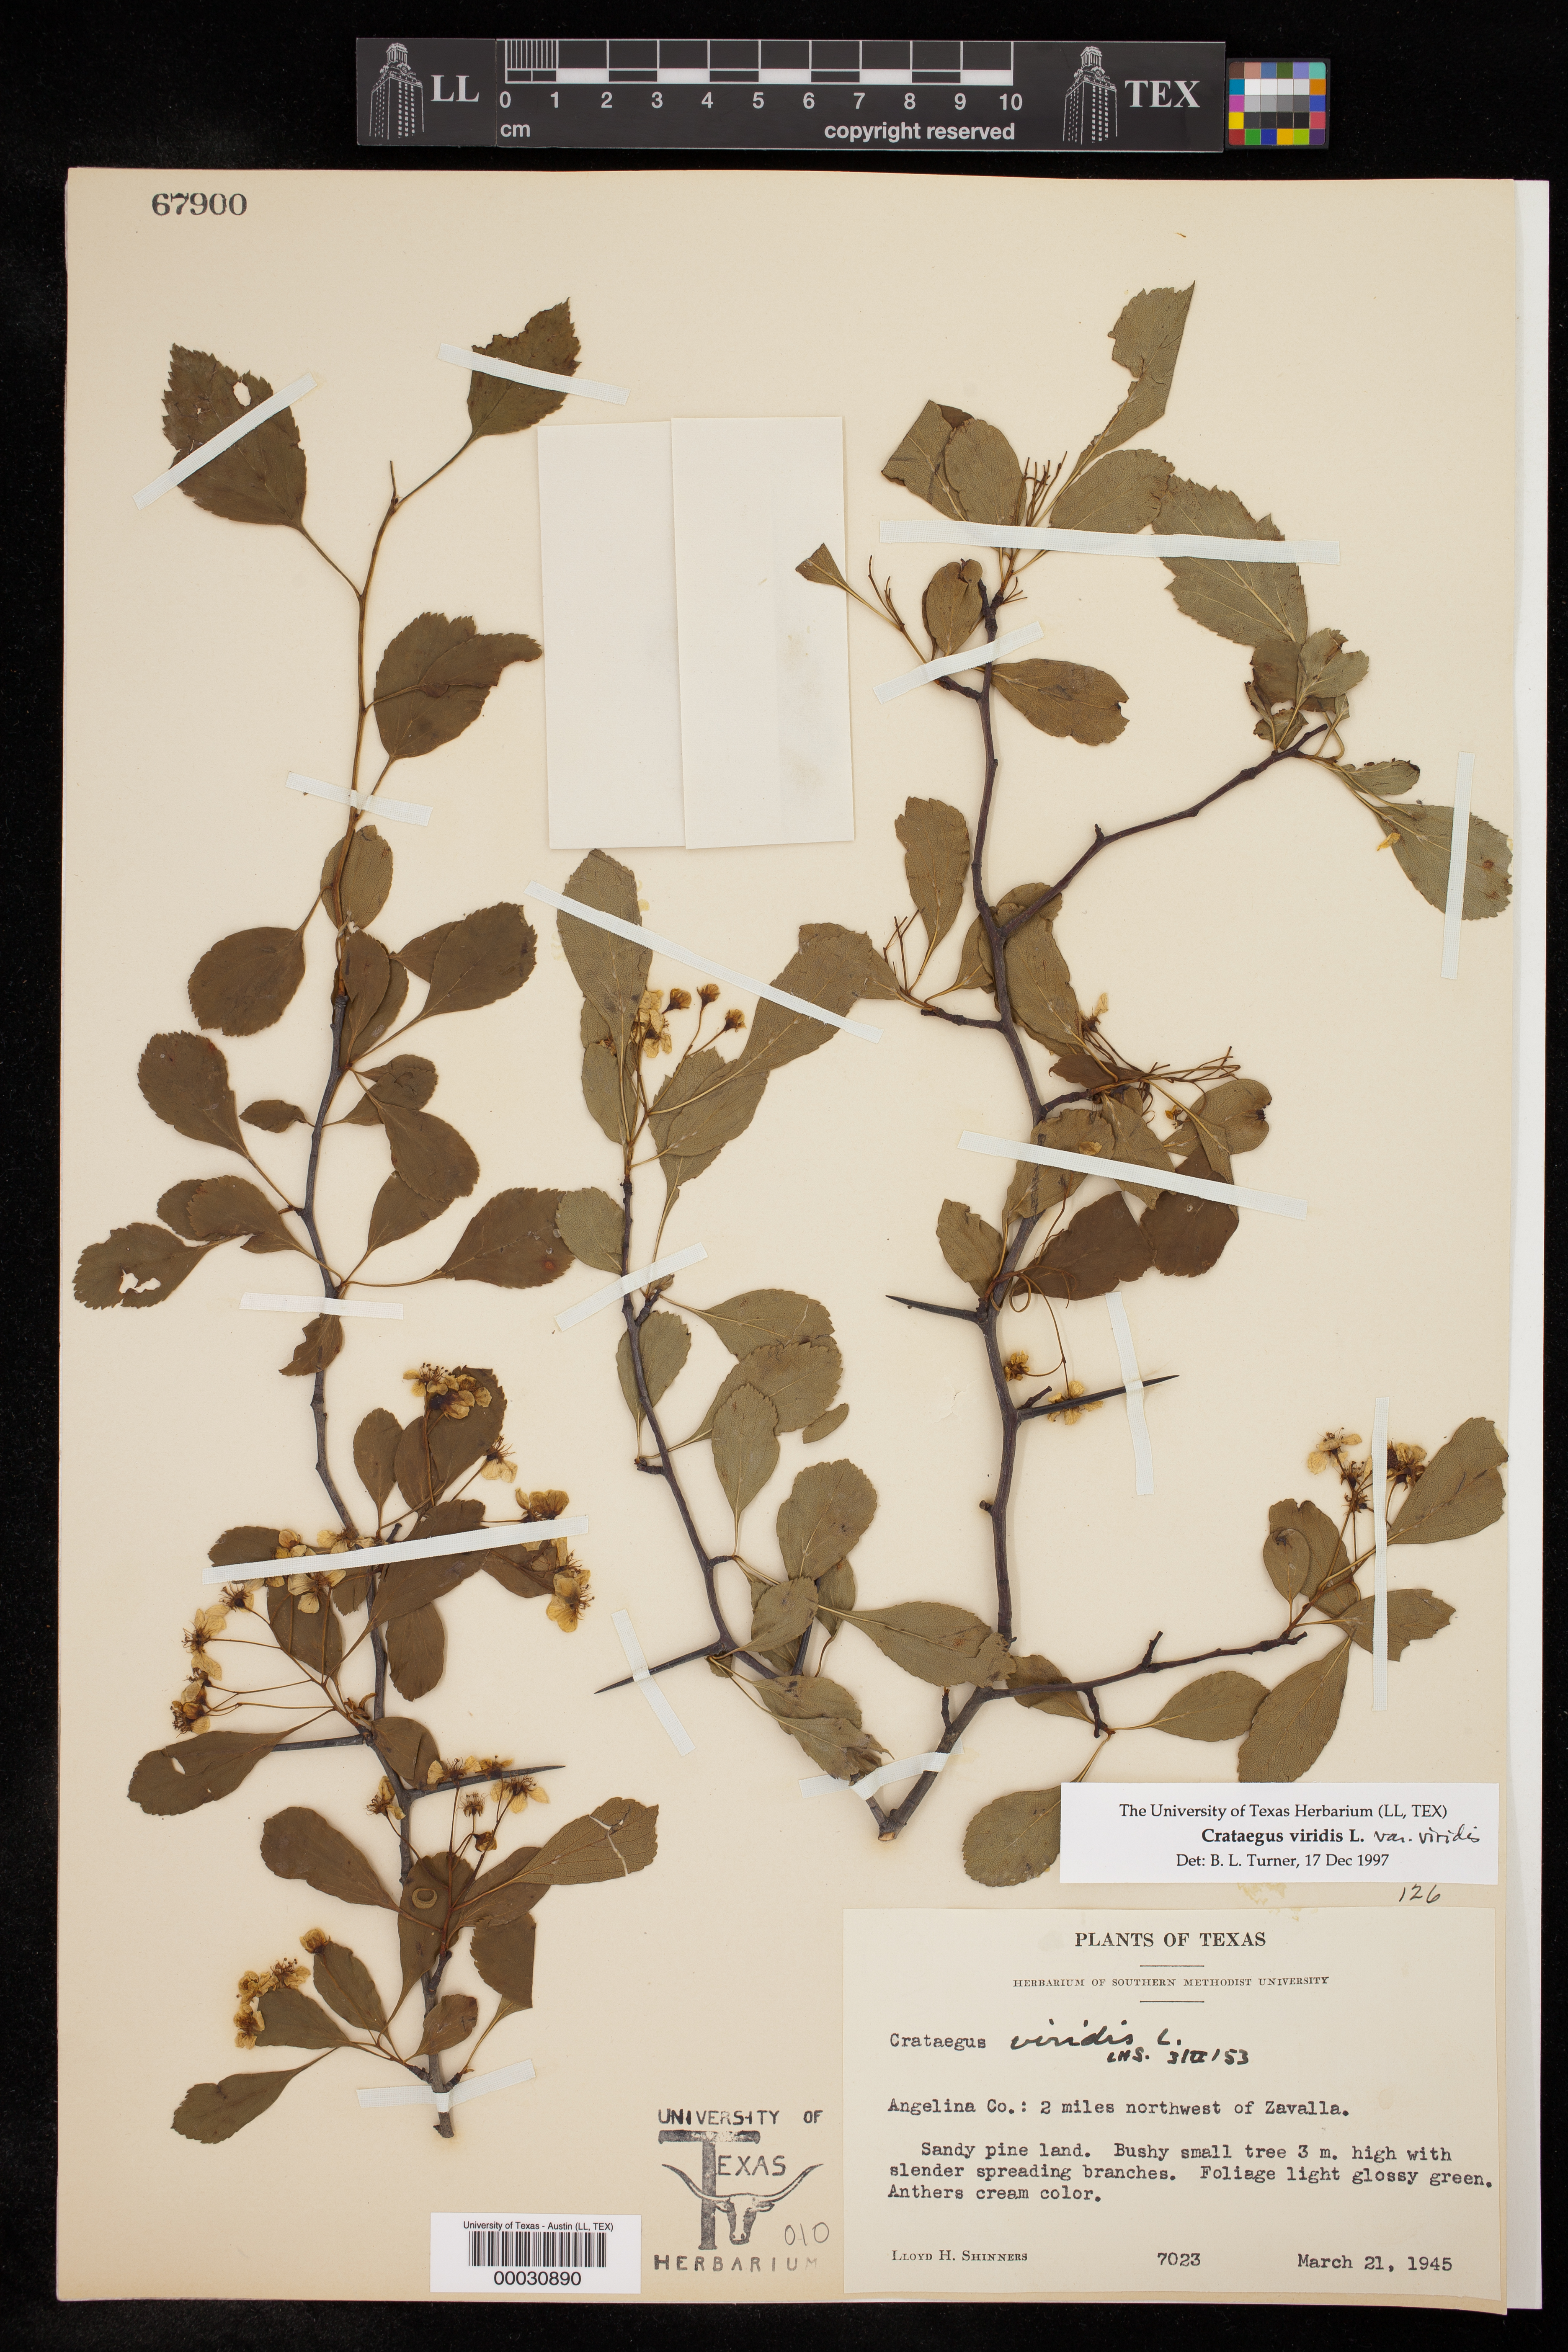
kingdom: Plantae
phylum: Tracheophyta
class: Magnoliopsida
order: Rosales
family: Rosaceae
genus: Crataegus
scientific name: Crataegus viridis
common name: Southernthorn
